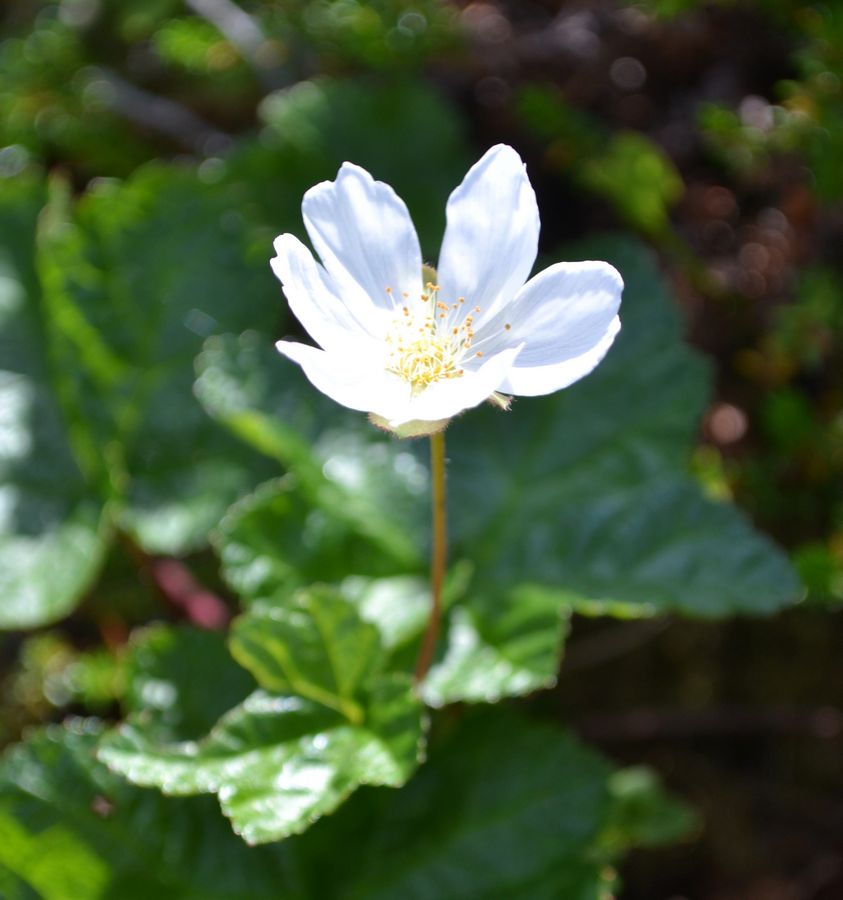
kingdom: Plantae
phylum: Tracheophyta
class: Magnoliopsida
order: Rosales
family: Rosaceae
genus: Rubus
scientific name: Rubus chamaemorus
